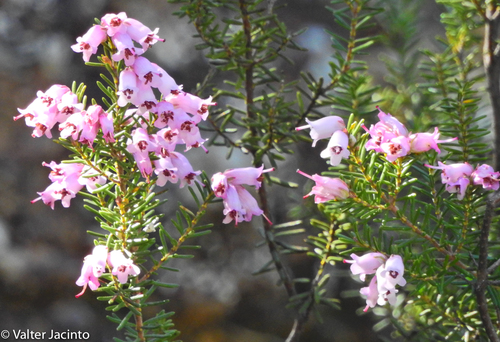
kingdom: Plantae
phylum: Tracheophyta
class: Magnoliopsida
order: Ericales
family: Ericaceae
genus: Erica
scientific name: Erica australis
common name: Spanish heath
